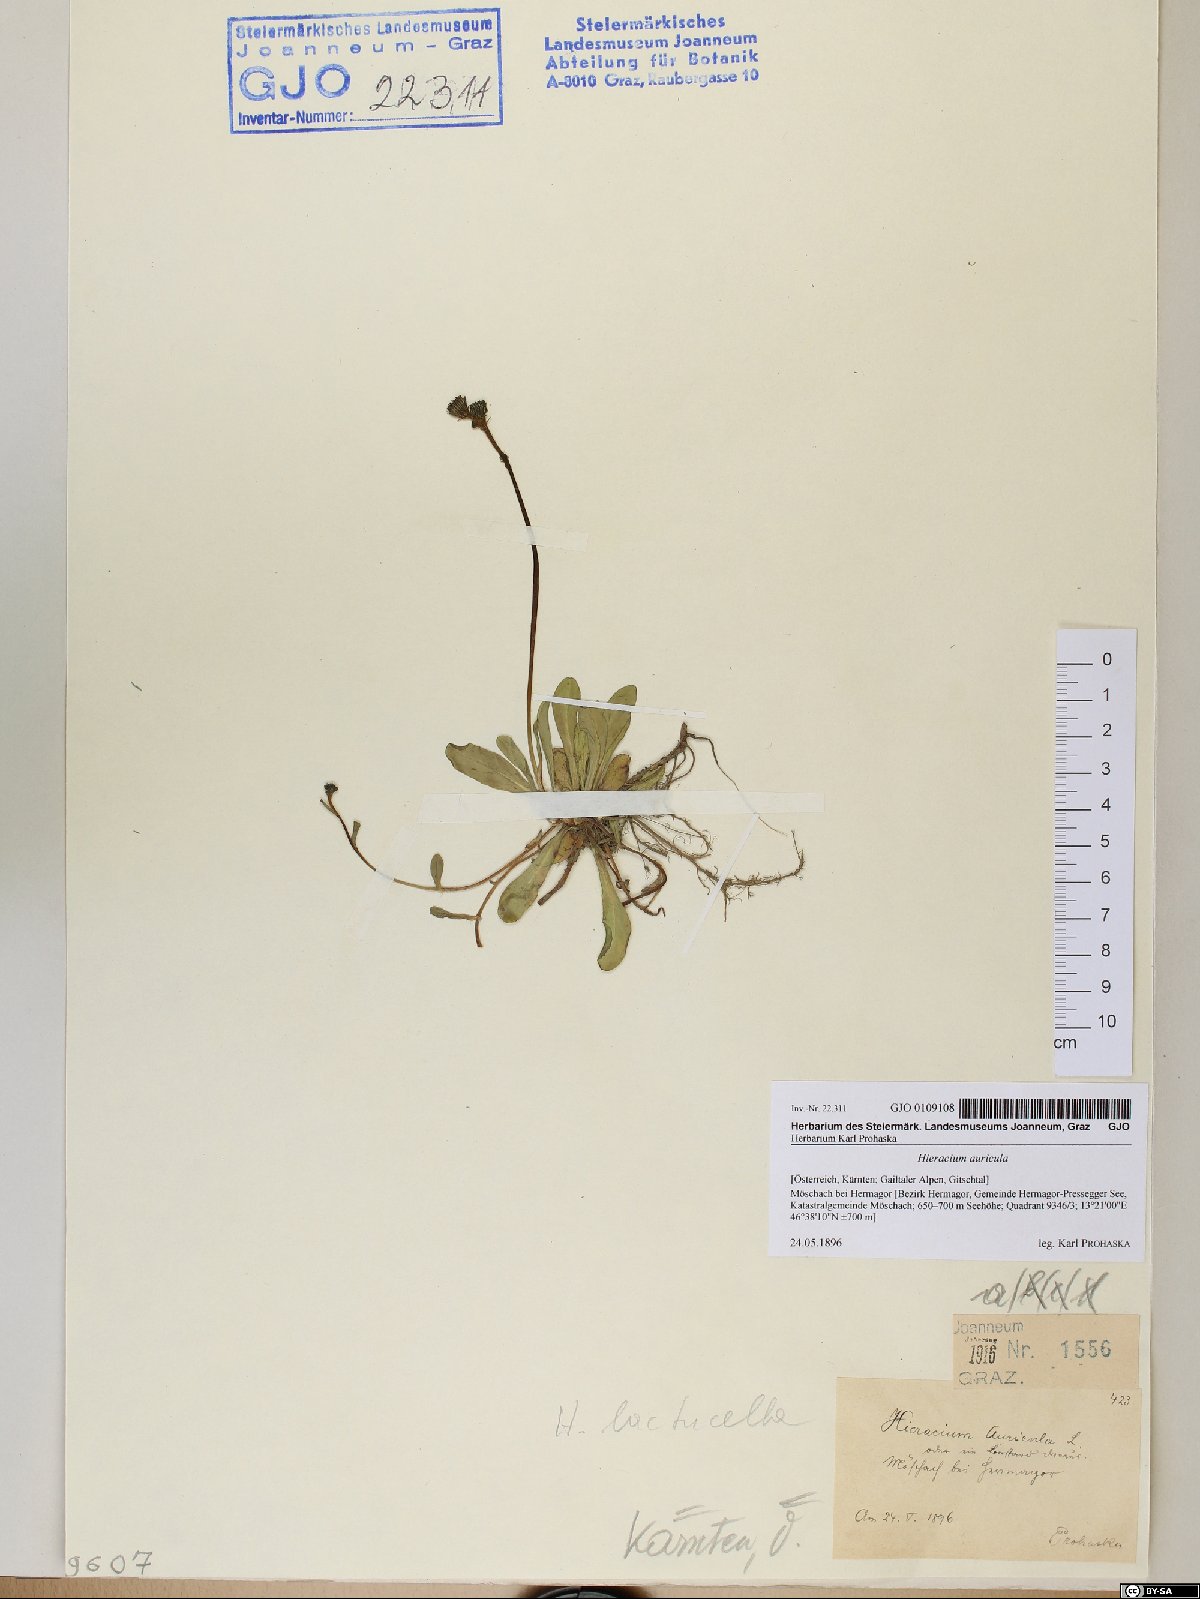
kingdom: Plantae
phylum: Tracheophyta
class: Magnoliopsida
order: Asterales
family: Asteraceae
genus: Hieracium
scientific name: Hieracium auricula
